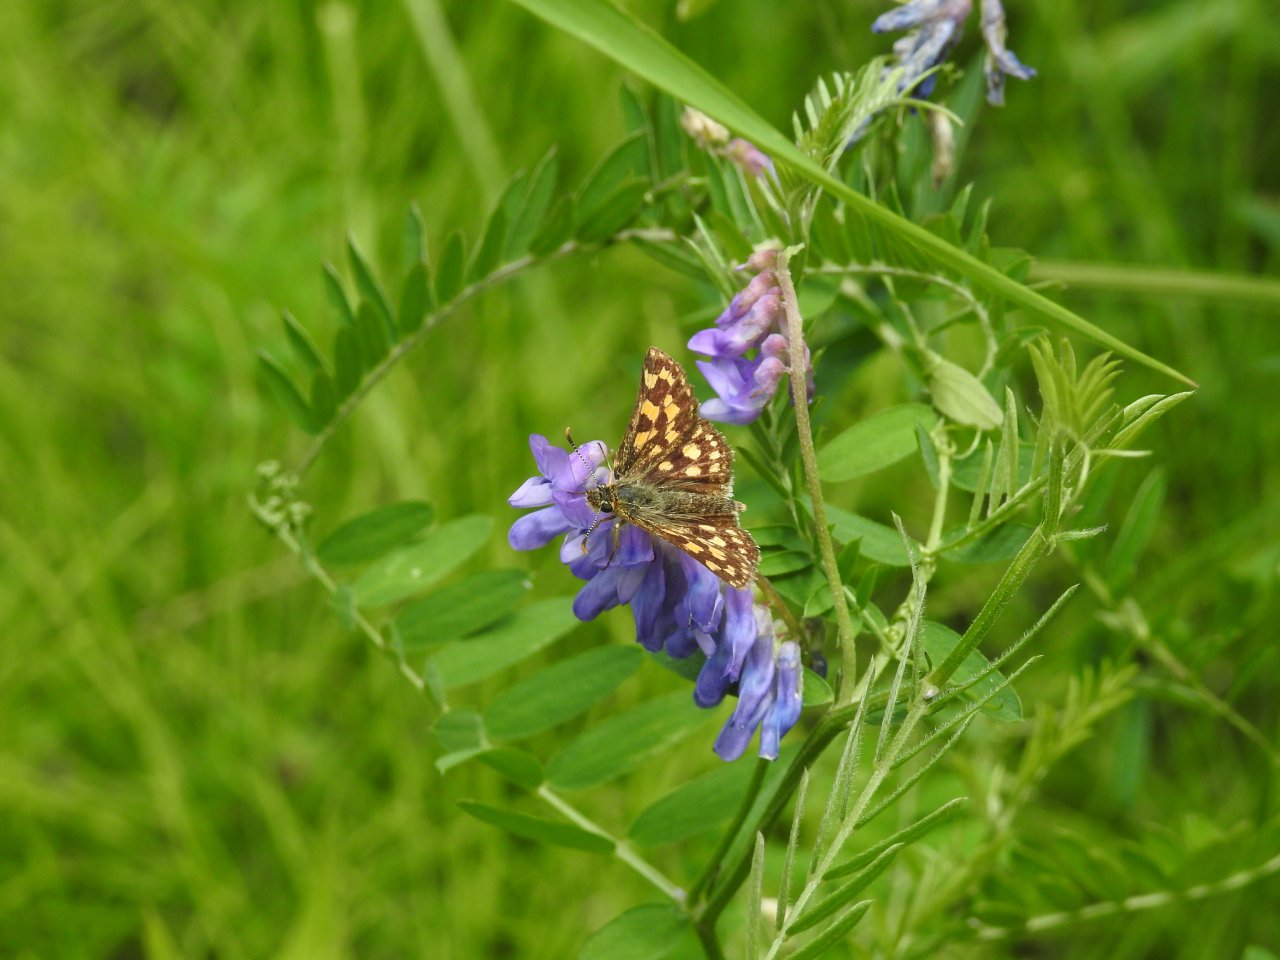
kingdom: Animalia
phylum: Arthropoda
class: Insecta
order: Lepidoptera
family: Hesperiidae
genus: Carterocephalus
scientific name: Carterocephalus palaemon
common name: Chequered Skipper
